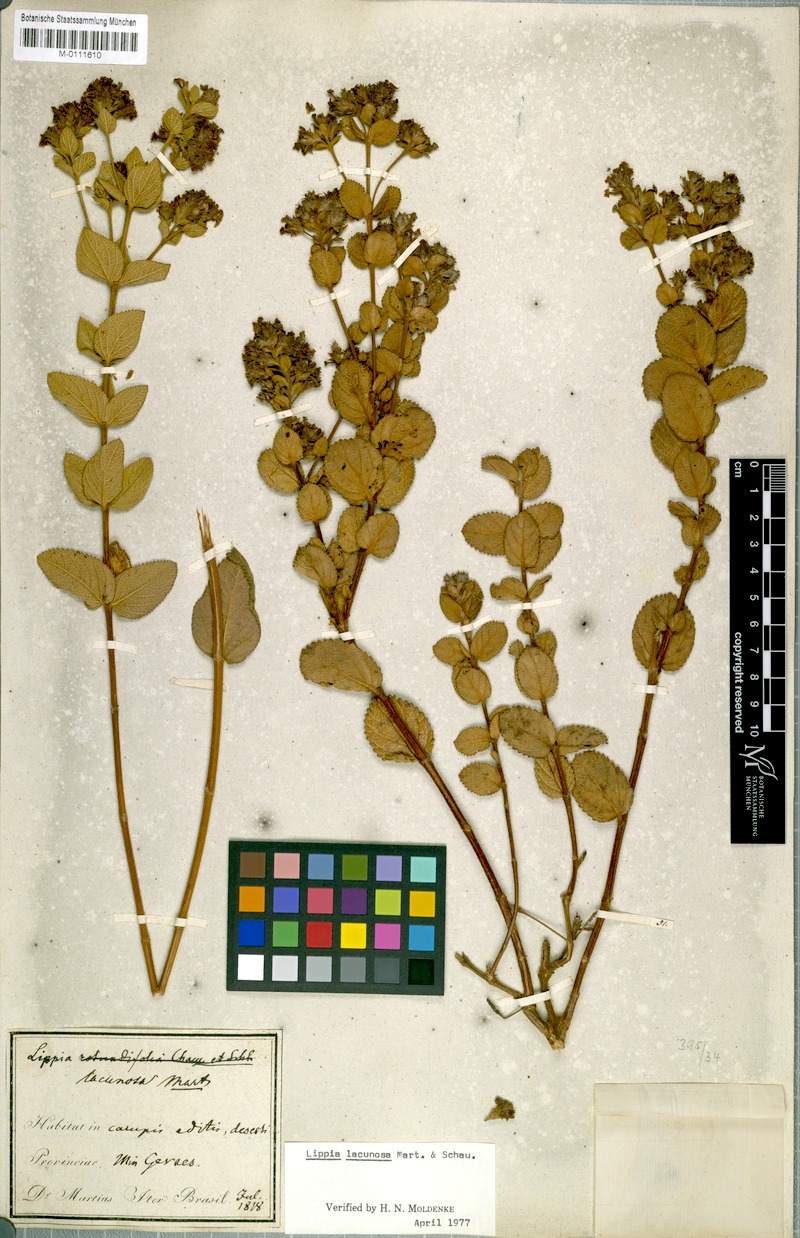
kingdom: Plantae
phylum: Tracheophyta
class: Magnoliopsida
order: Lamiales
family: Verbenaceae
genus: Lippia
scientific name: Lippia lacunosa
